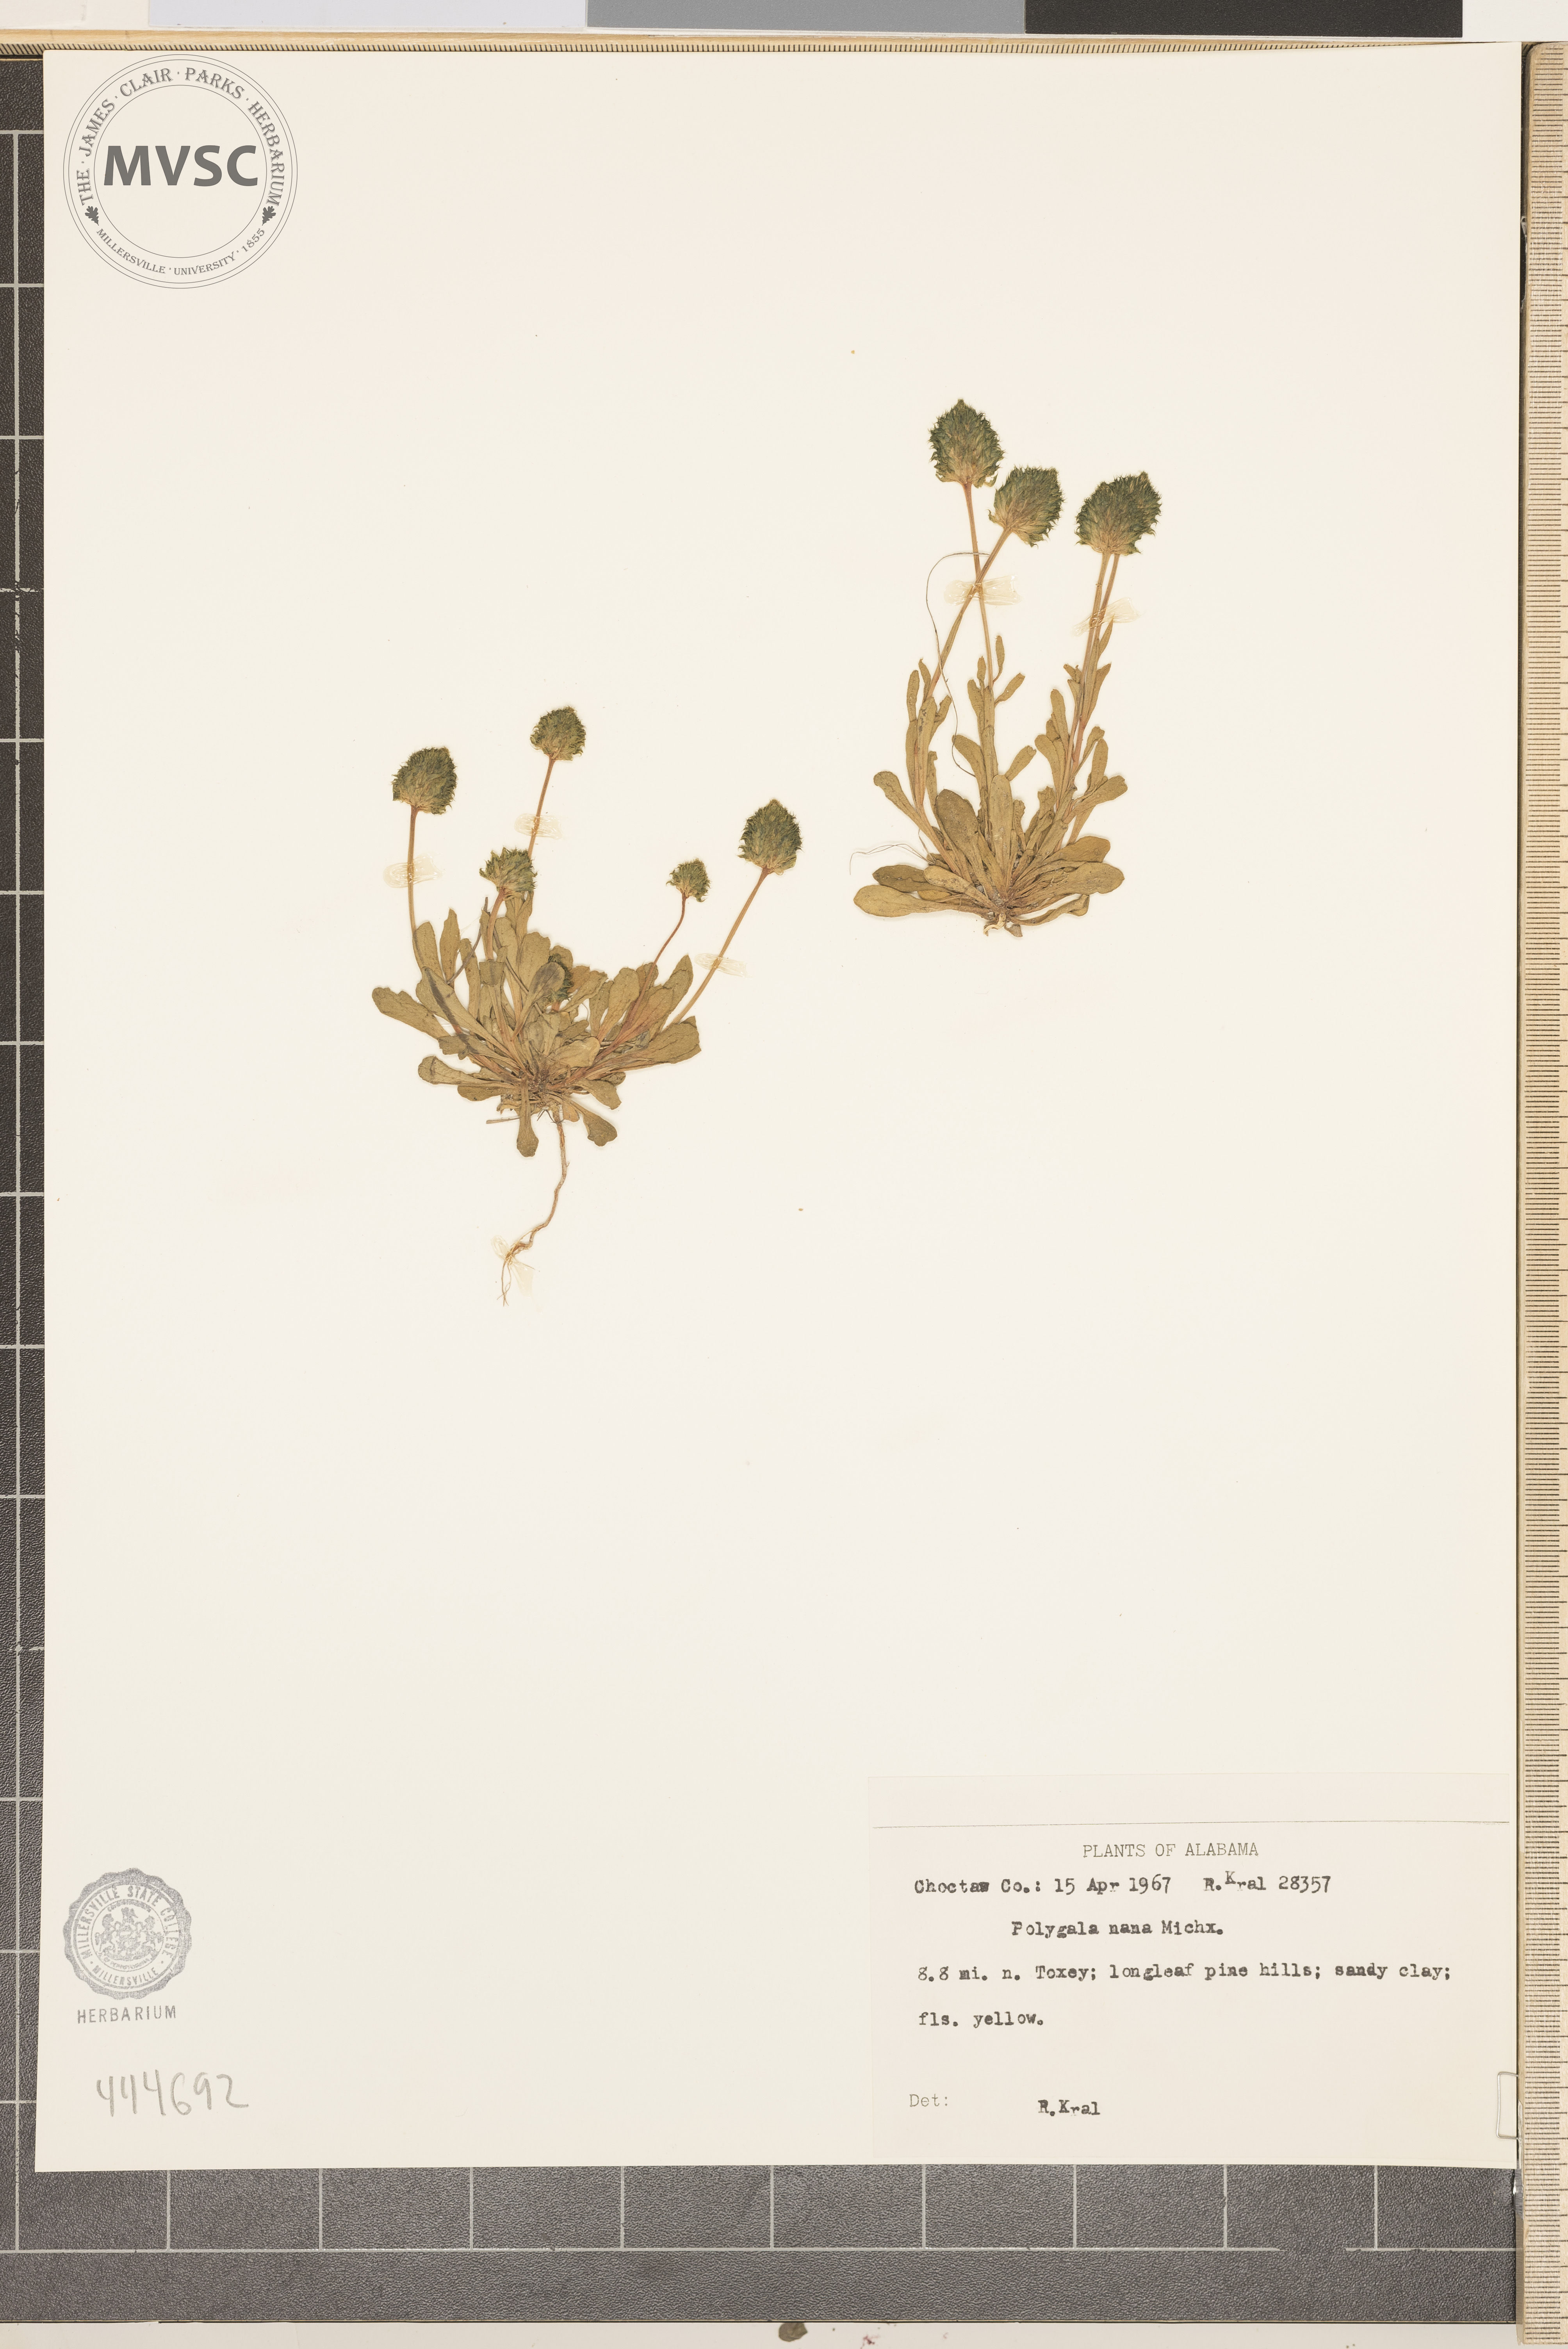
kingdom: Plantae
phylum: Tracheophyta
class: Magnoliopsida
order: Fabales
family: Polygalaceae
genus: Polygala
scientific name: Polygala nana
